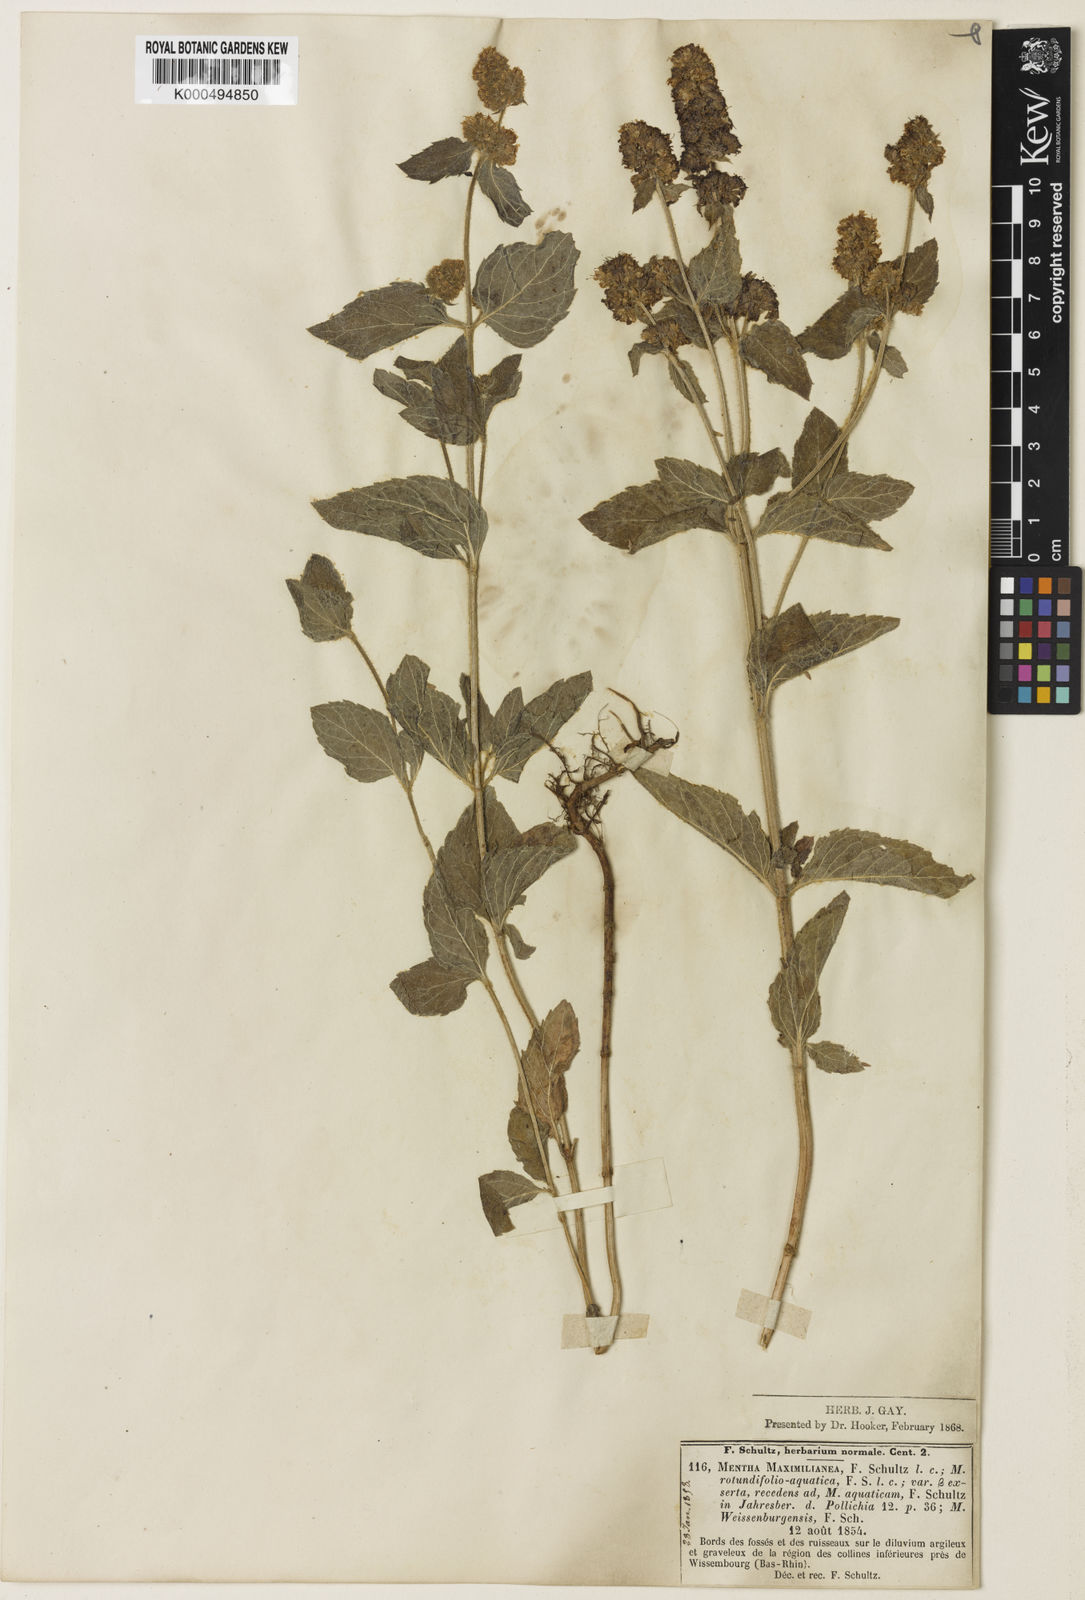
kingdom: Plantae
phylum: Tracheophyta
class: Magnoliopsida
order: Lamiales
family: Lamiaceae
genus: Mentha
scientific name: Mentha suavis
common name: Sweet mint
